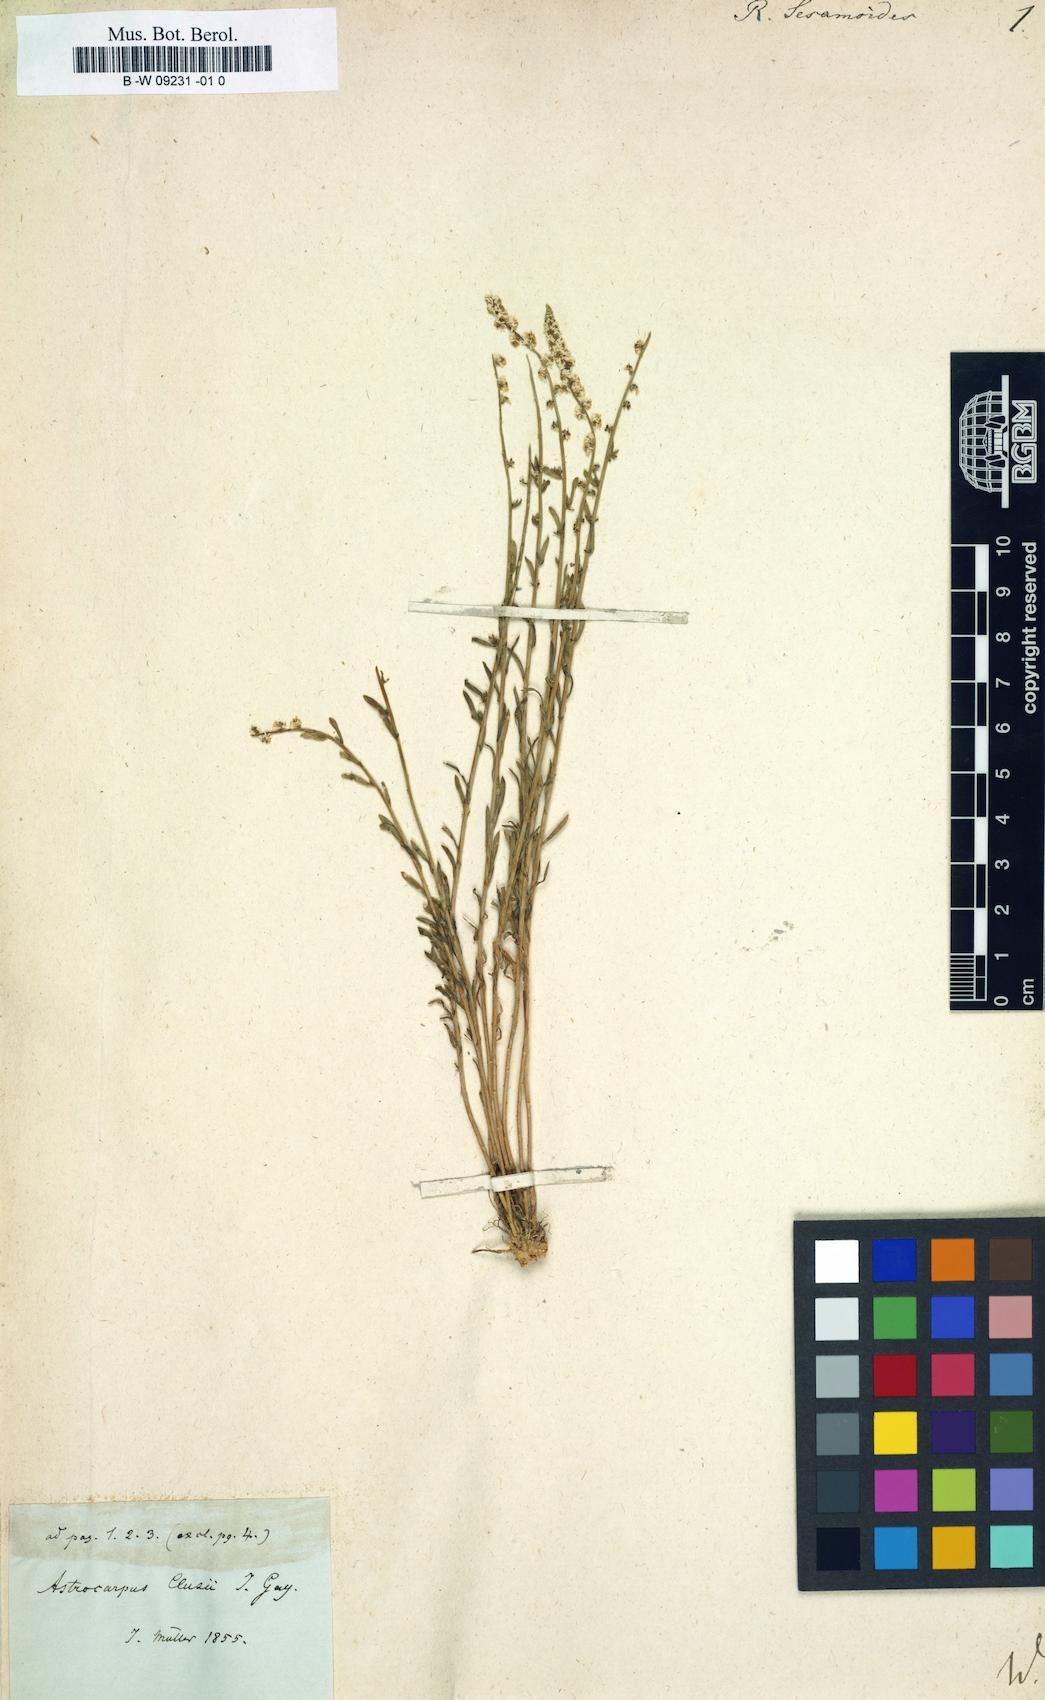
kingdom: Plantae
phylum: Tracheophyta
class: Magnoliopsida
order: Brassicales
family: Resedaceae
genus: Sesamoides
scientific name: Sesamoides
